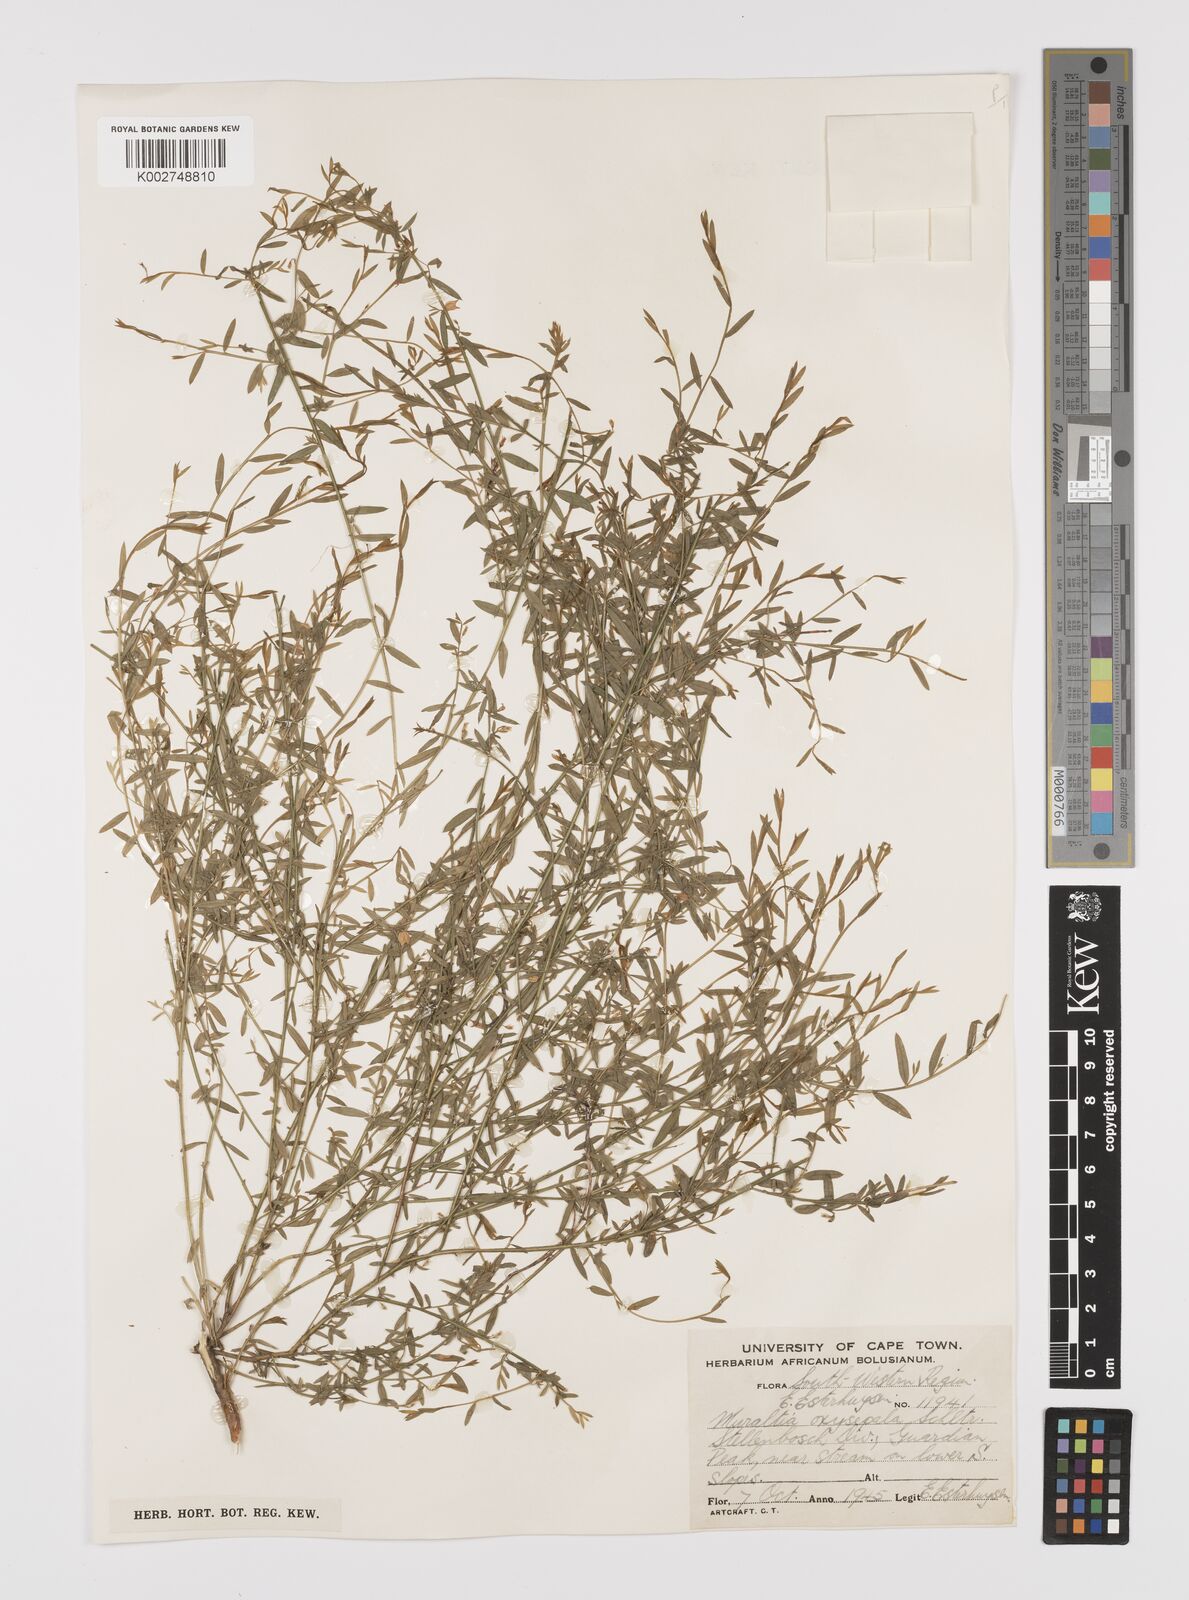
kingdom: Plantae
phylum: Tracheophyta
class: Magnoliopsida
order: Fabales
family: Polygalaceae
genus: Muraltia
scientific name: Muraltia oxysepala
